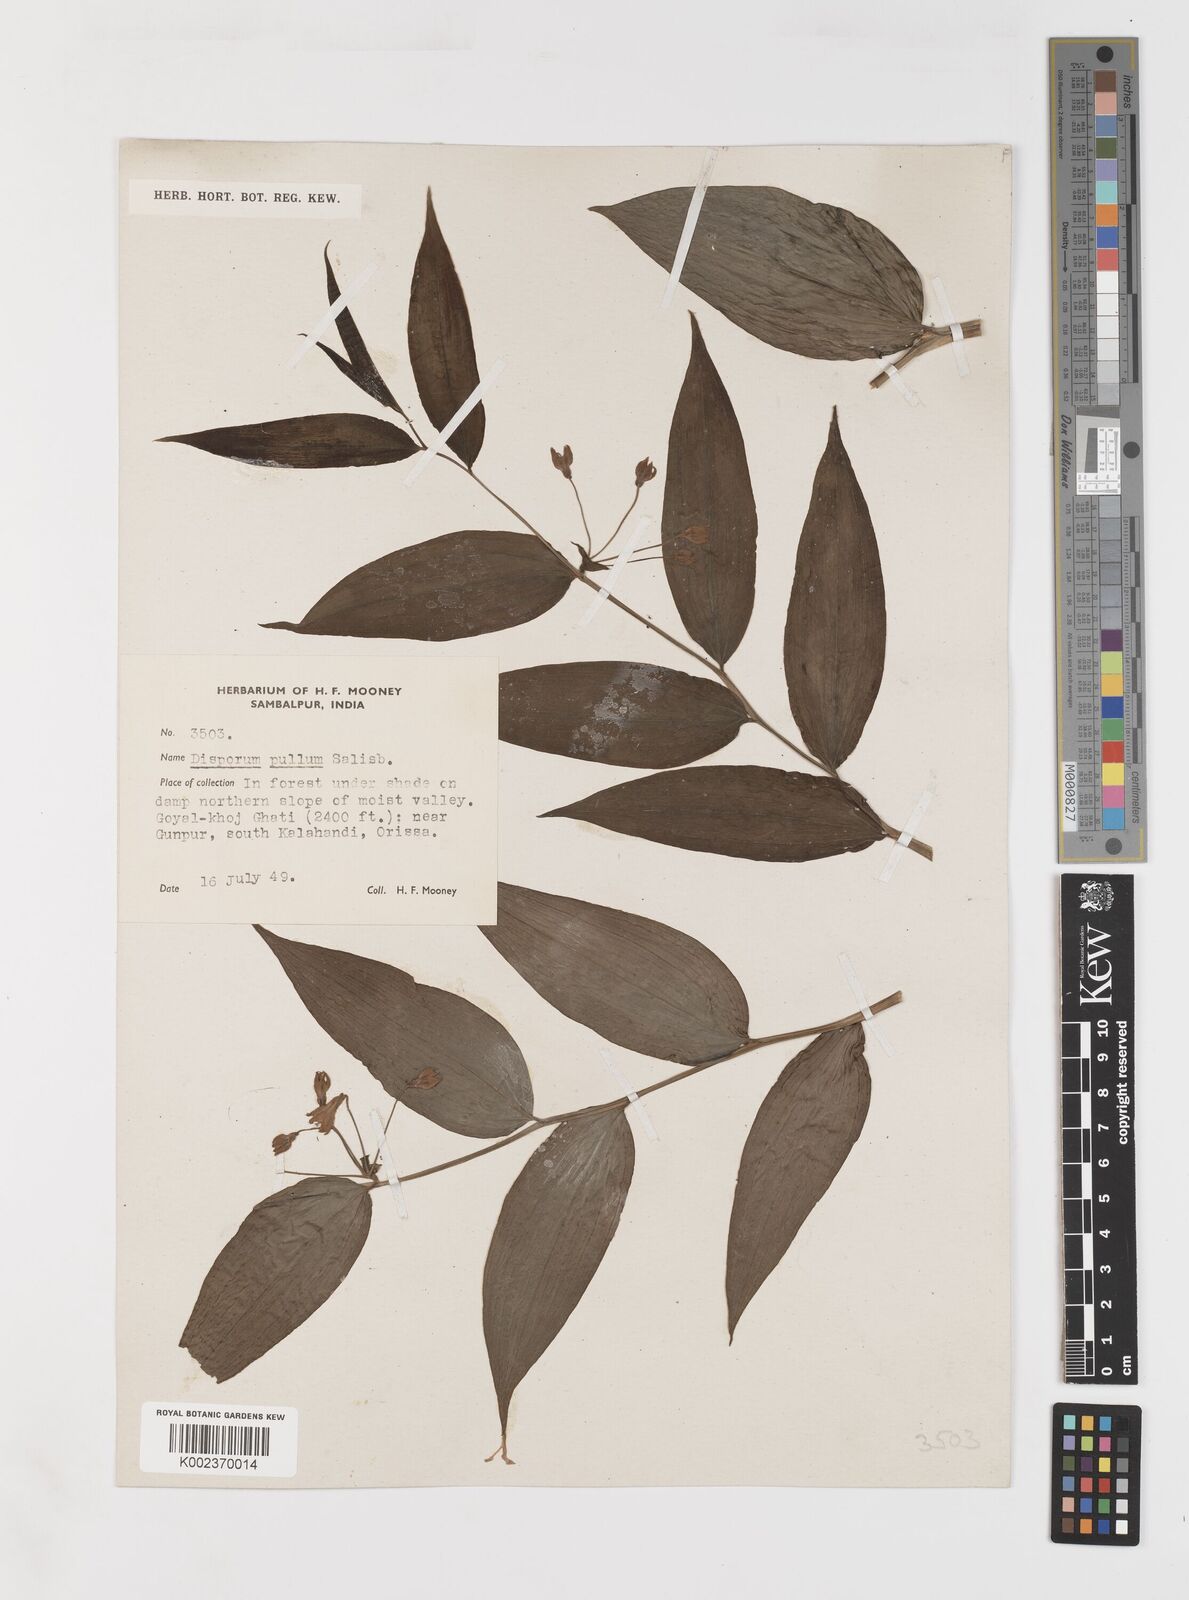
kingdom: Plantae
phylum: Tracheophyta
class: Liliopsida
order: Liliales
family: Colchicaceae
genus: Disporum
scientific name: Disporum cantoniense
